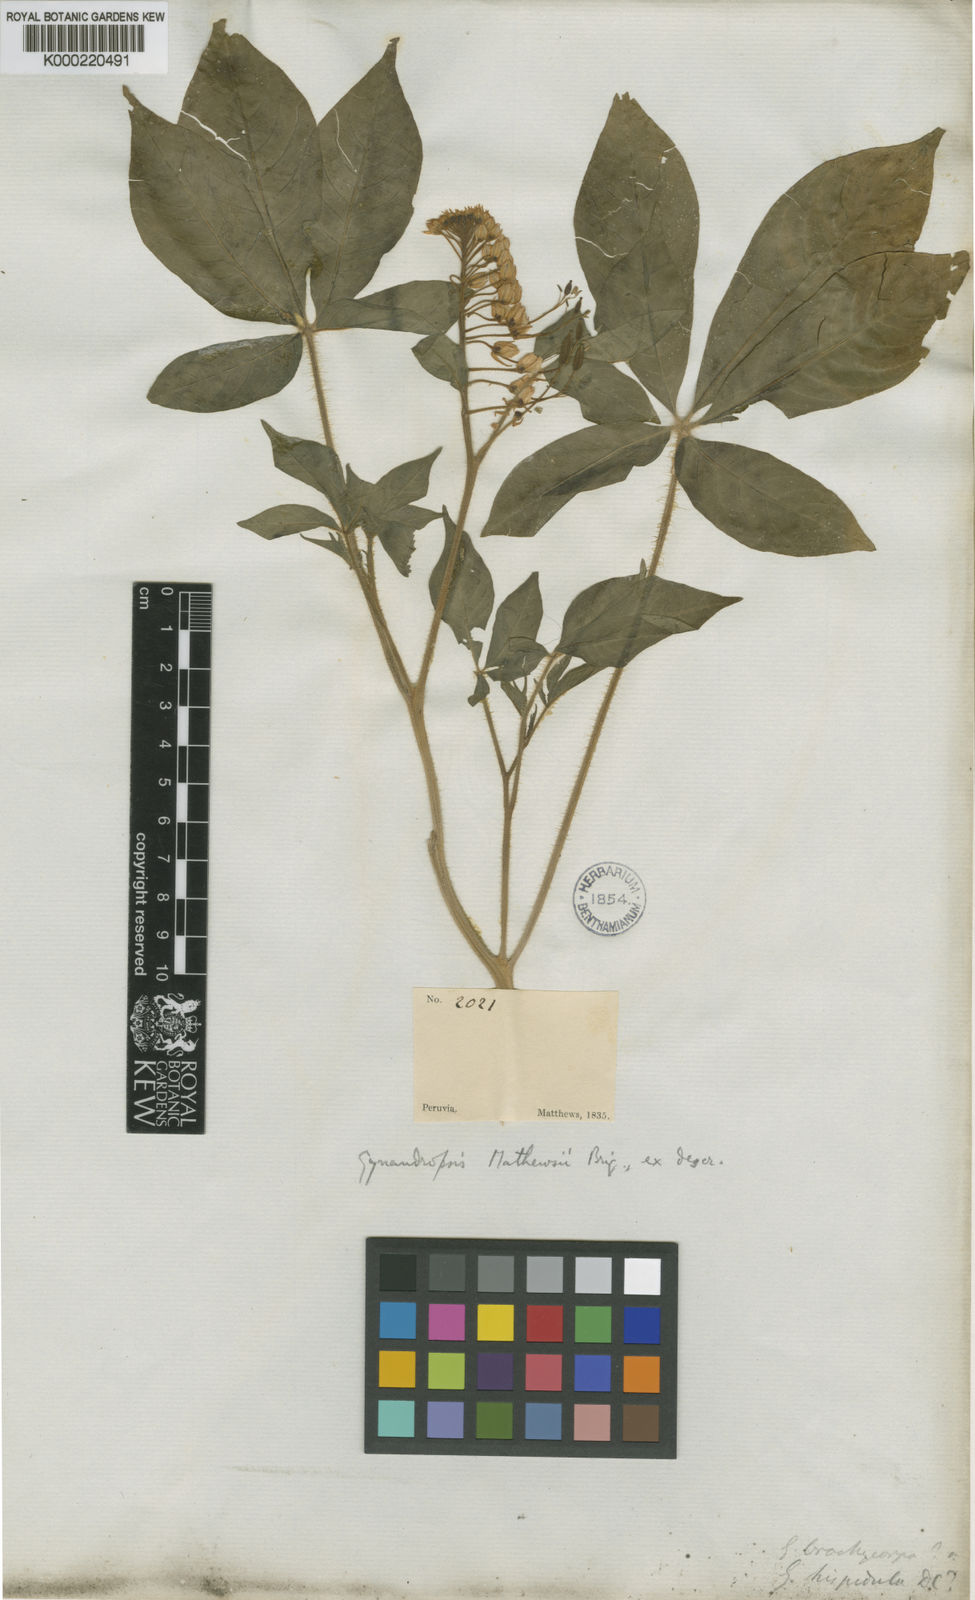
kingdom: Plantae
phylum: Tracheophyta
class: Magnoliopsida
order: Brassicales
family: Cleomaceae
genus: Podandrogyne
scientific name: Podandrogyne mathewsii
